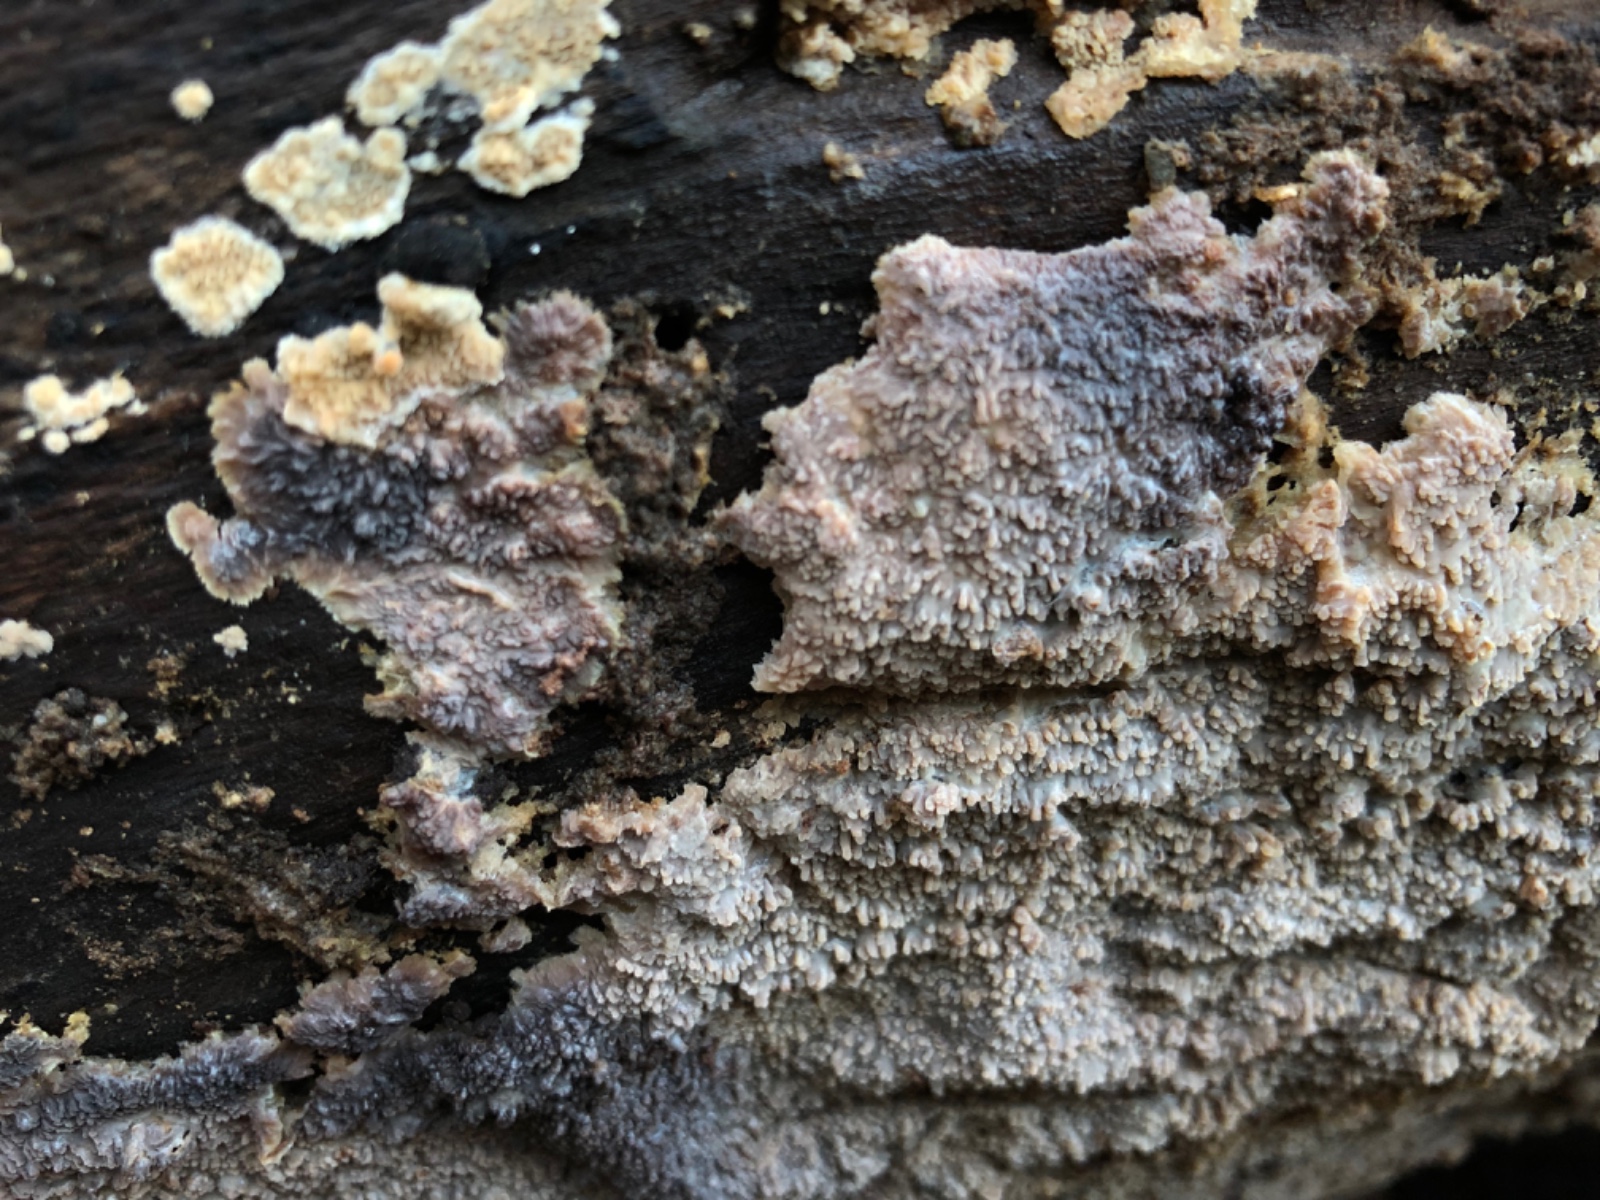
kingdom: Fungi
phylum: Basidiomycota
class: Agaricomycetes
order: Polyporales
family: Meruliaceae
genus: Phlebia
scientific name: Phlebia radiata
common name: stråle-åresvamp
